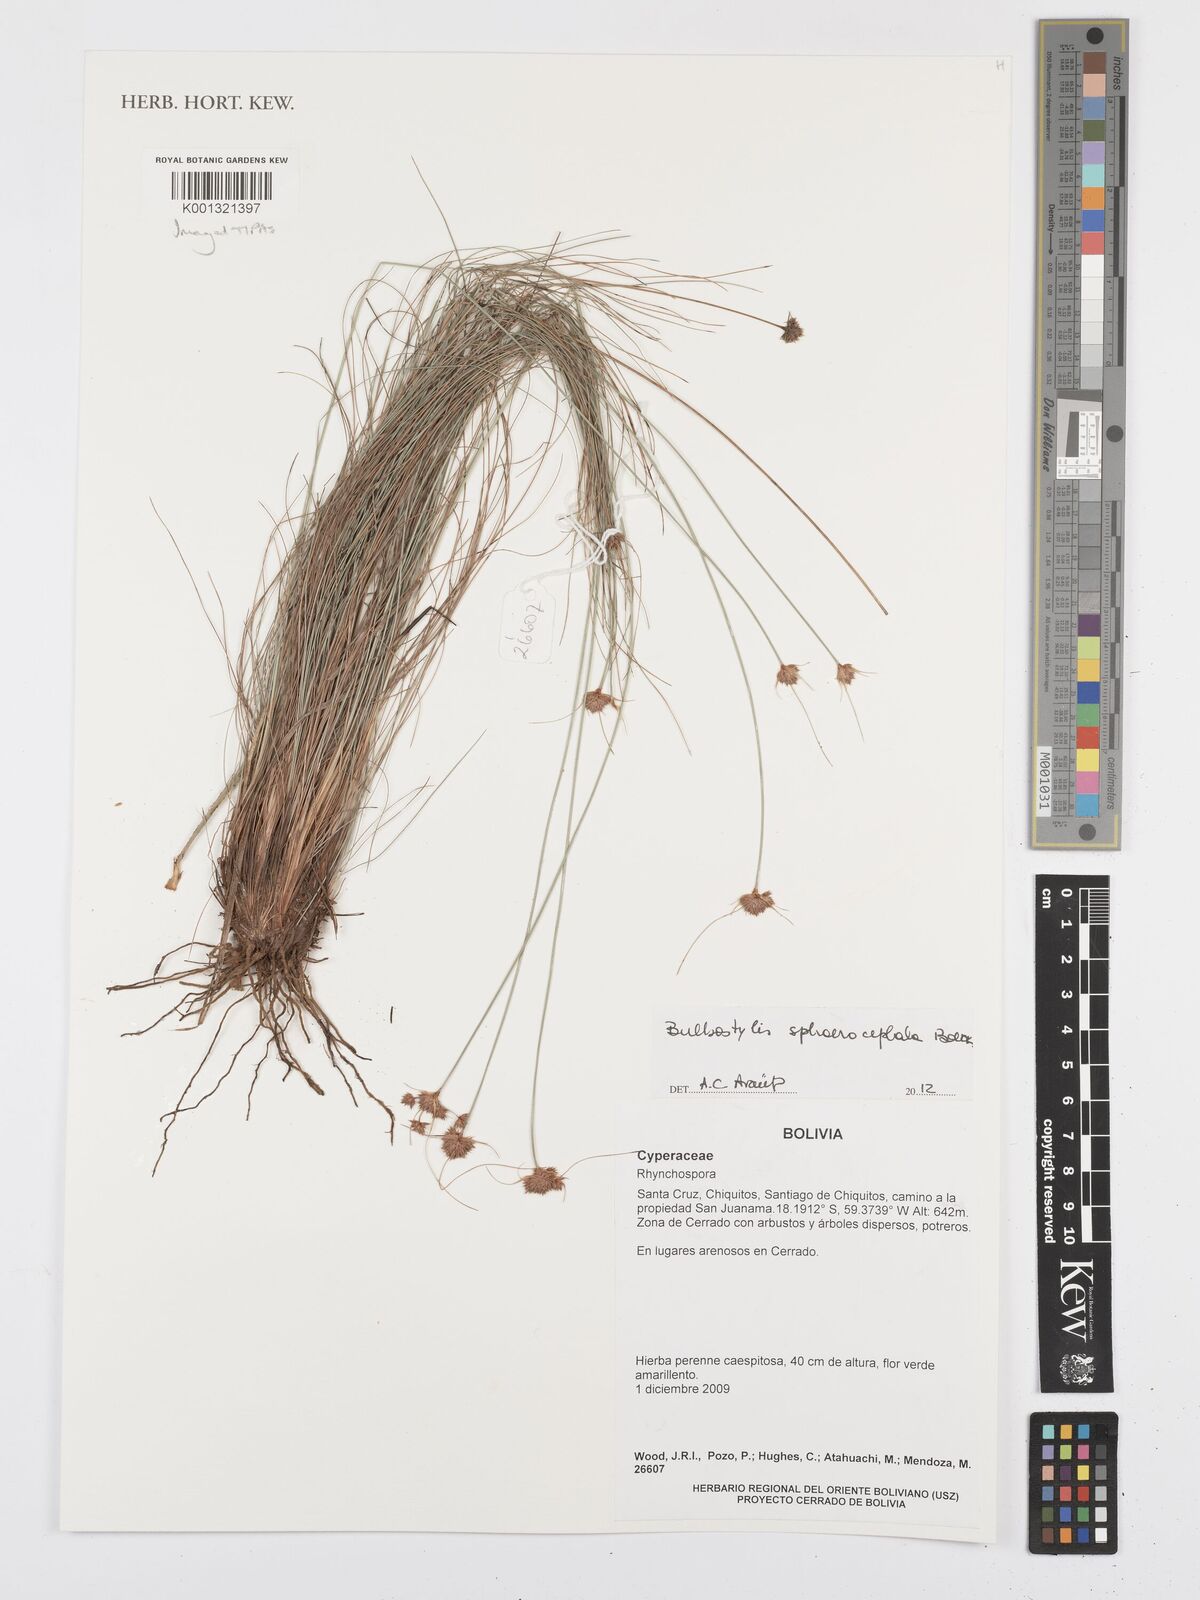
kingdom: Plantae
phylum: Tracheophyta
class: Liliopsida
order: Poales
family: Cyperaceae
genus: Bulbostylis
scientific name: Bulbostylis sphaerocephala
